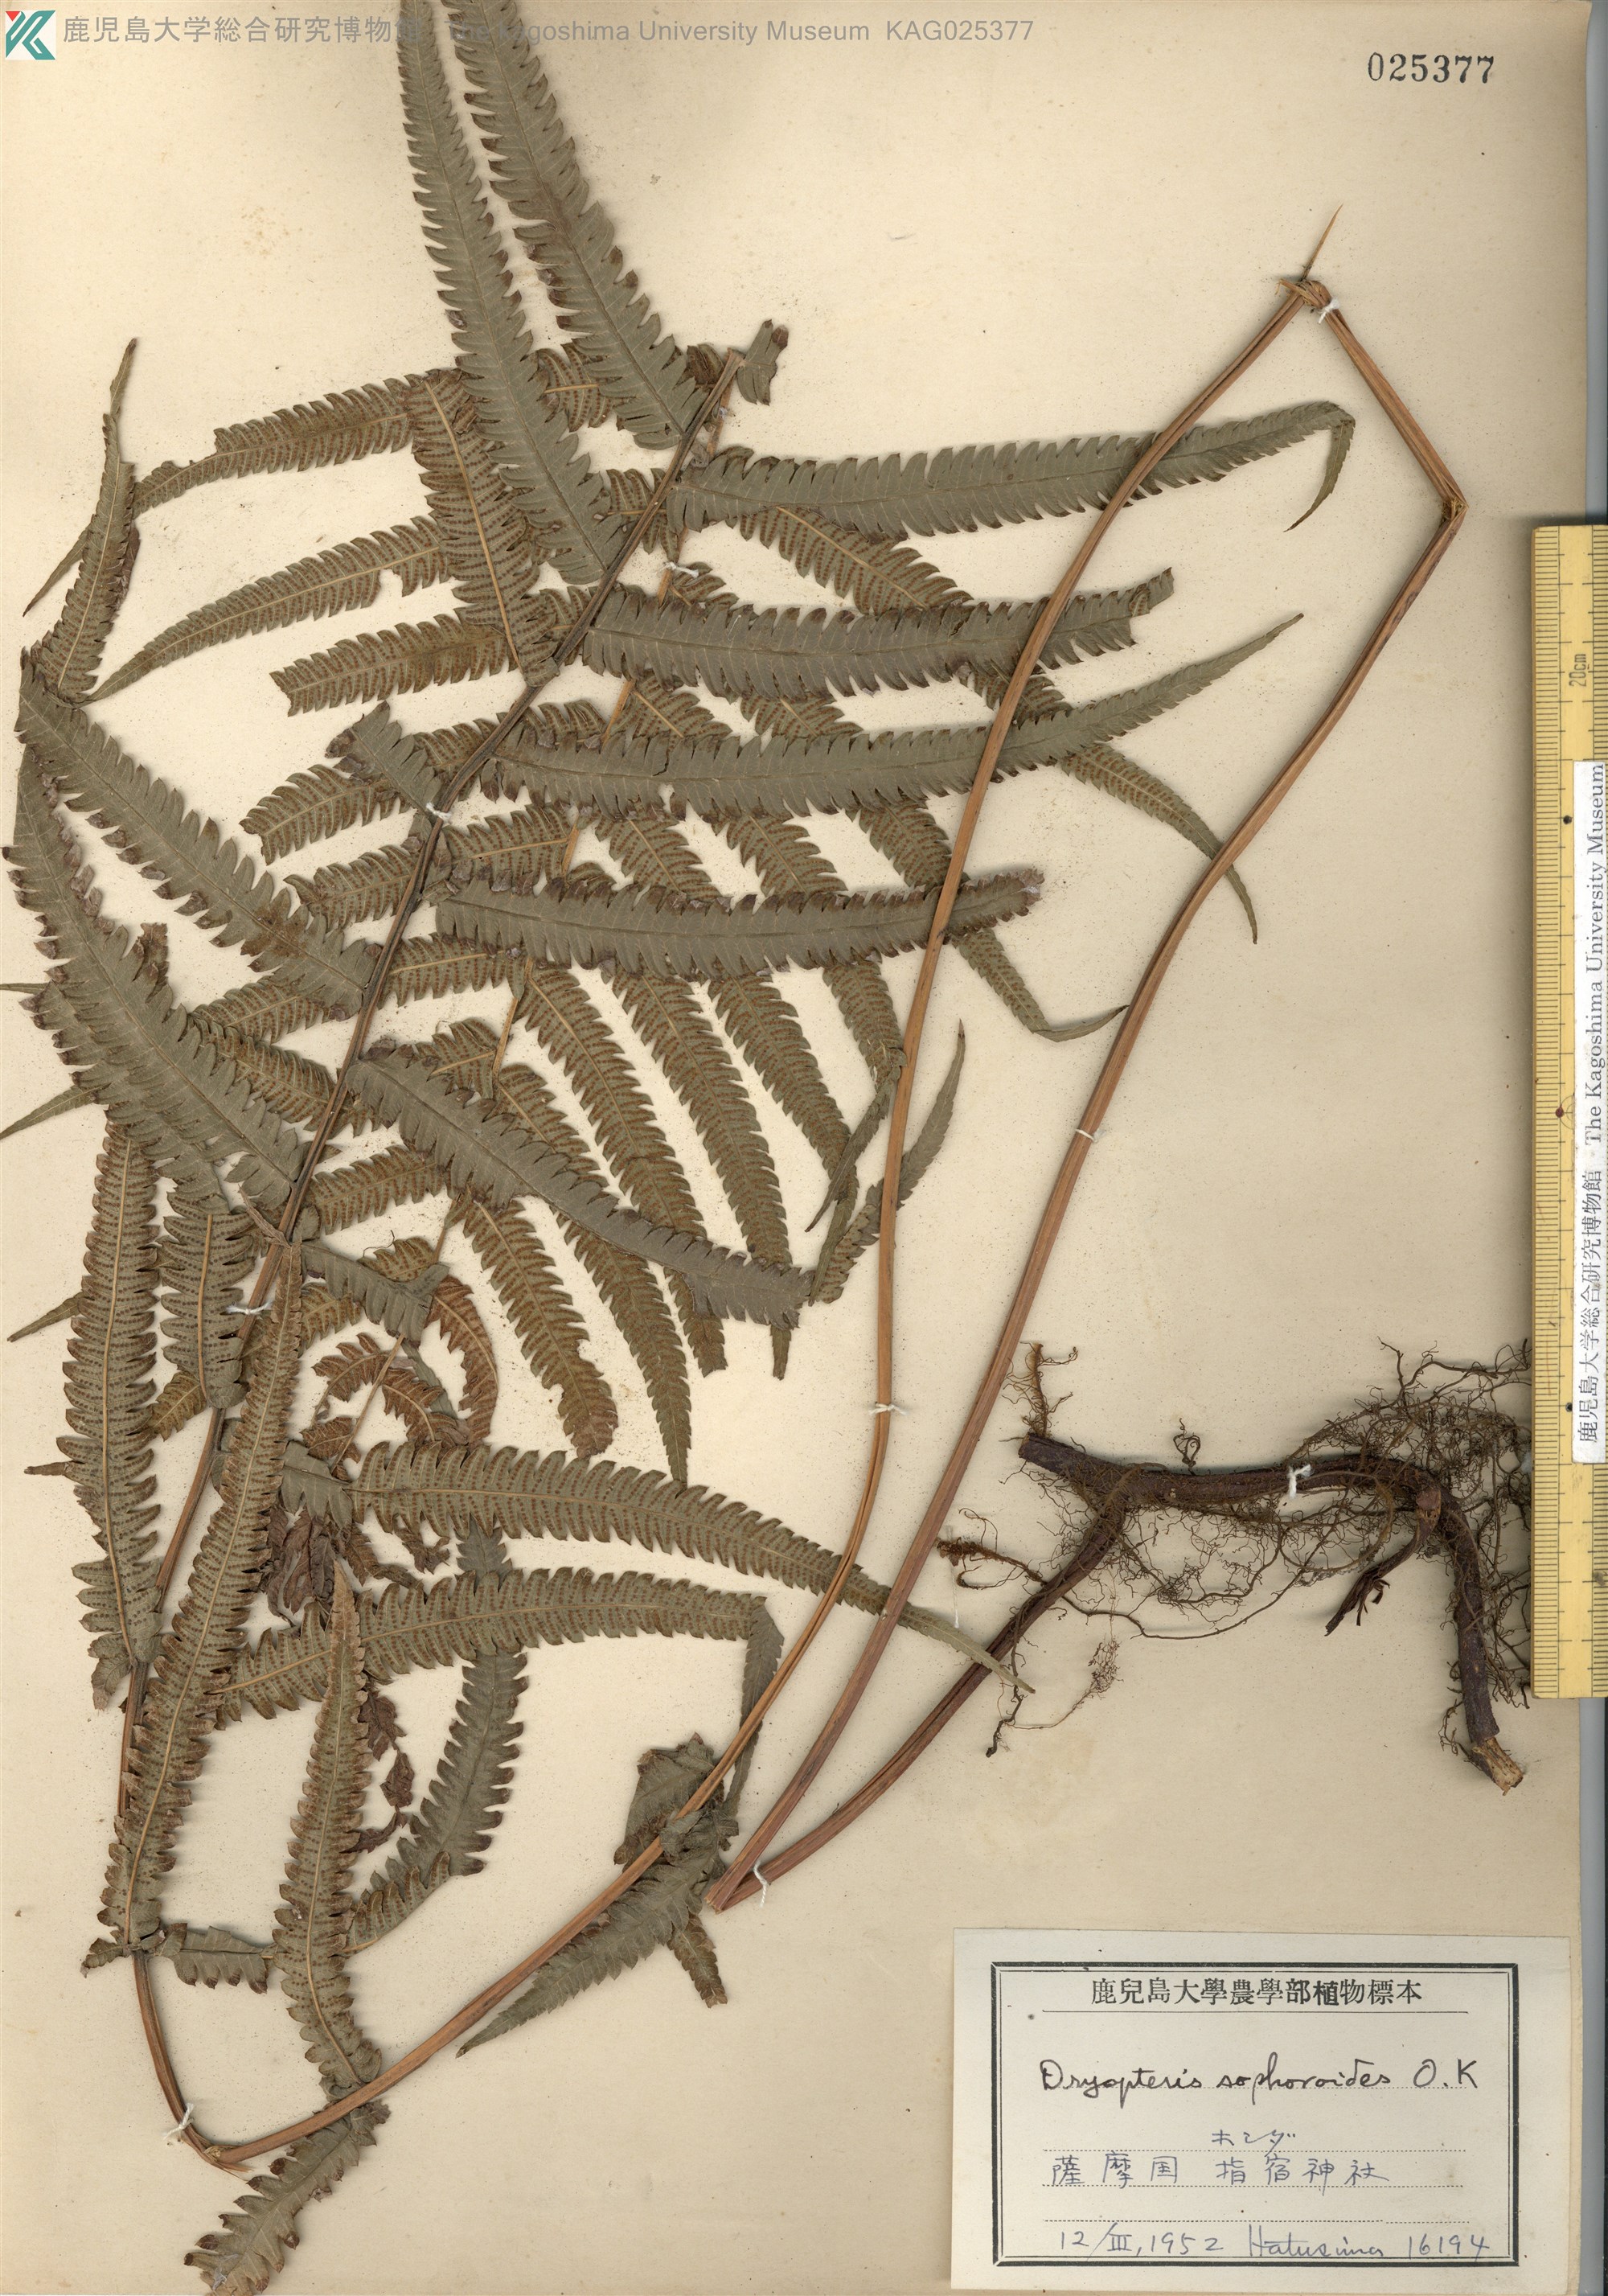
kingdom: Plantae
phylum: Tracheophyta
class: Polypodiopsida
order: Polypodiales
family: Thelypteridaceae
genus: Christella
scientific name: Christella acuminata
